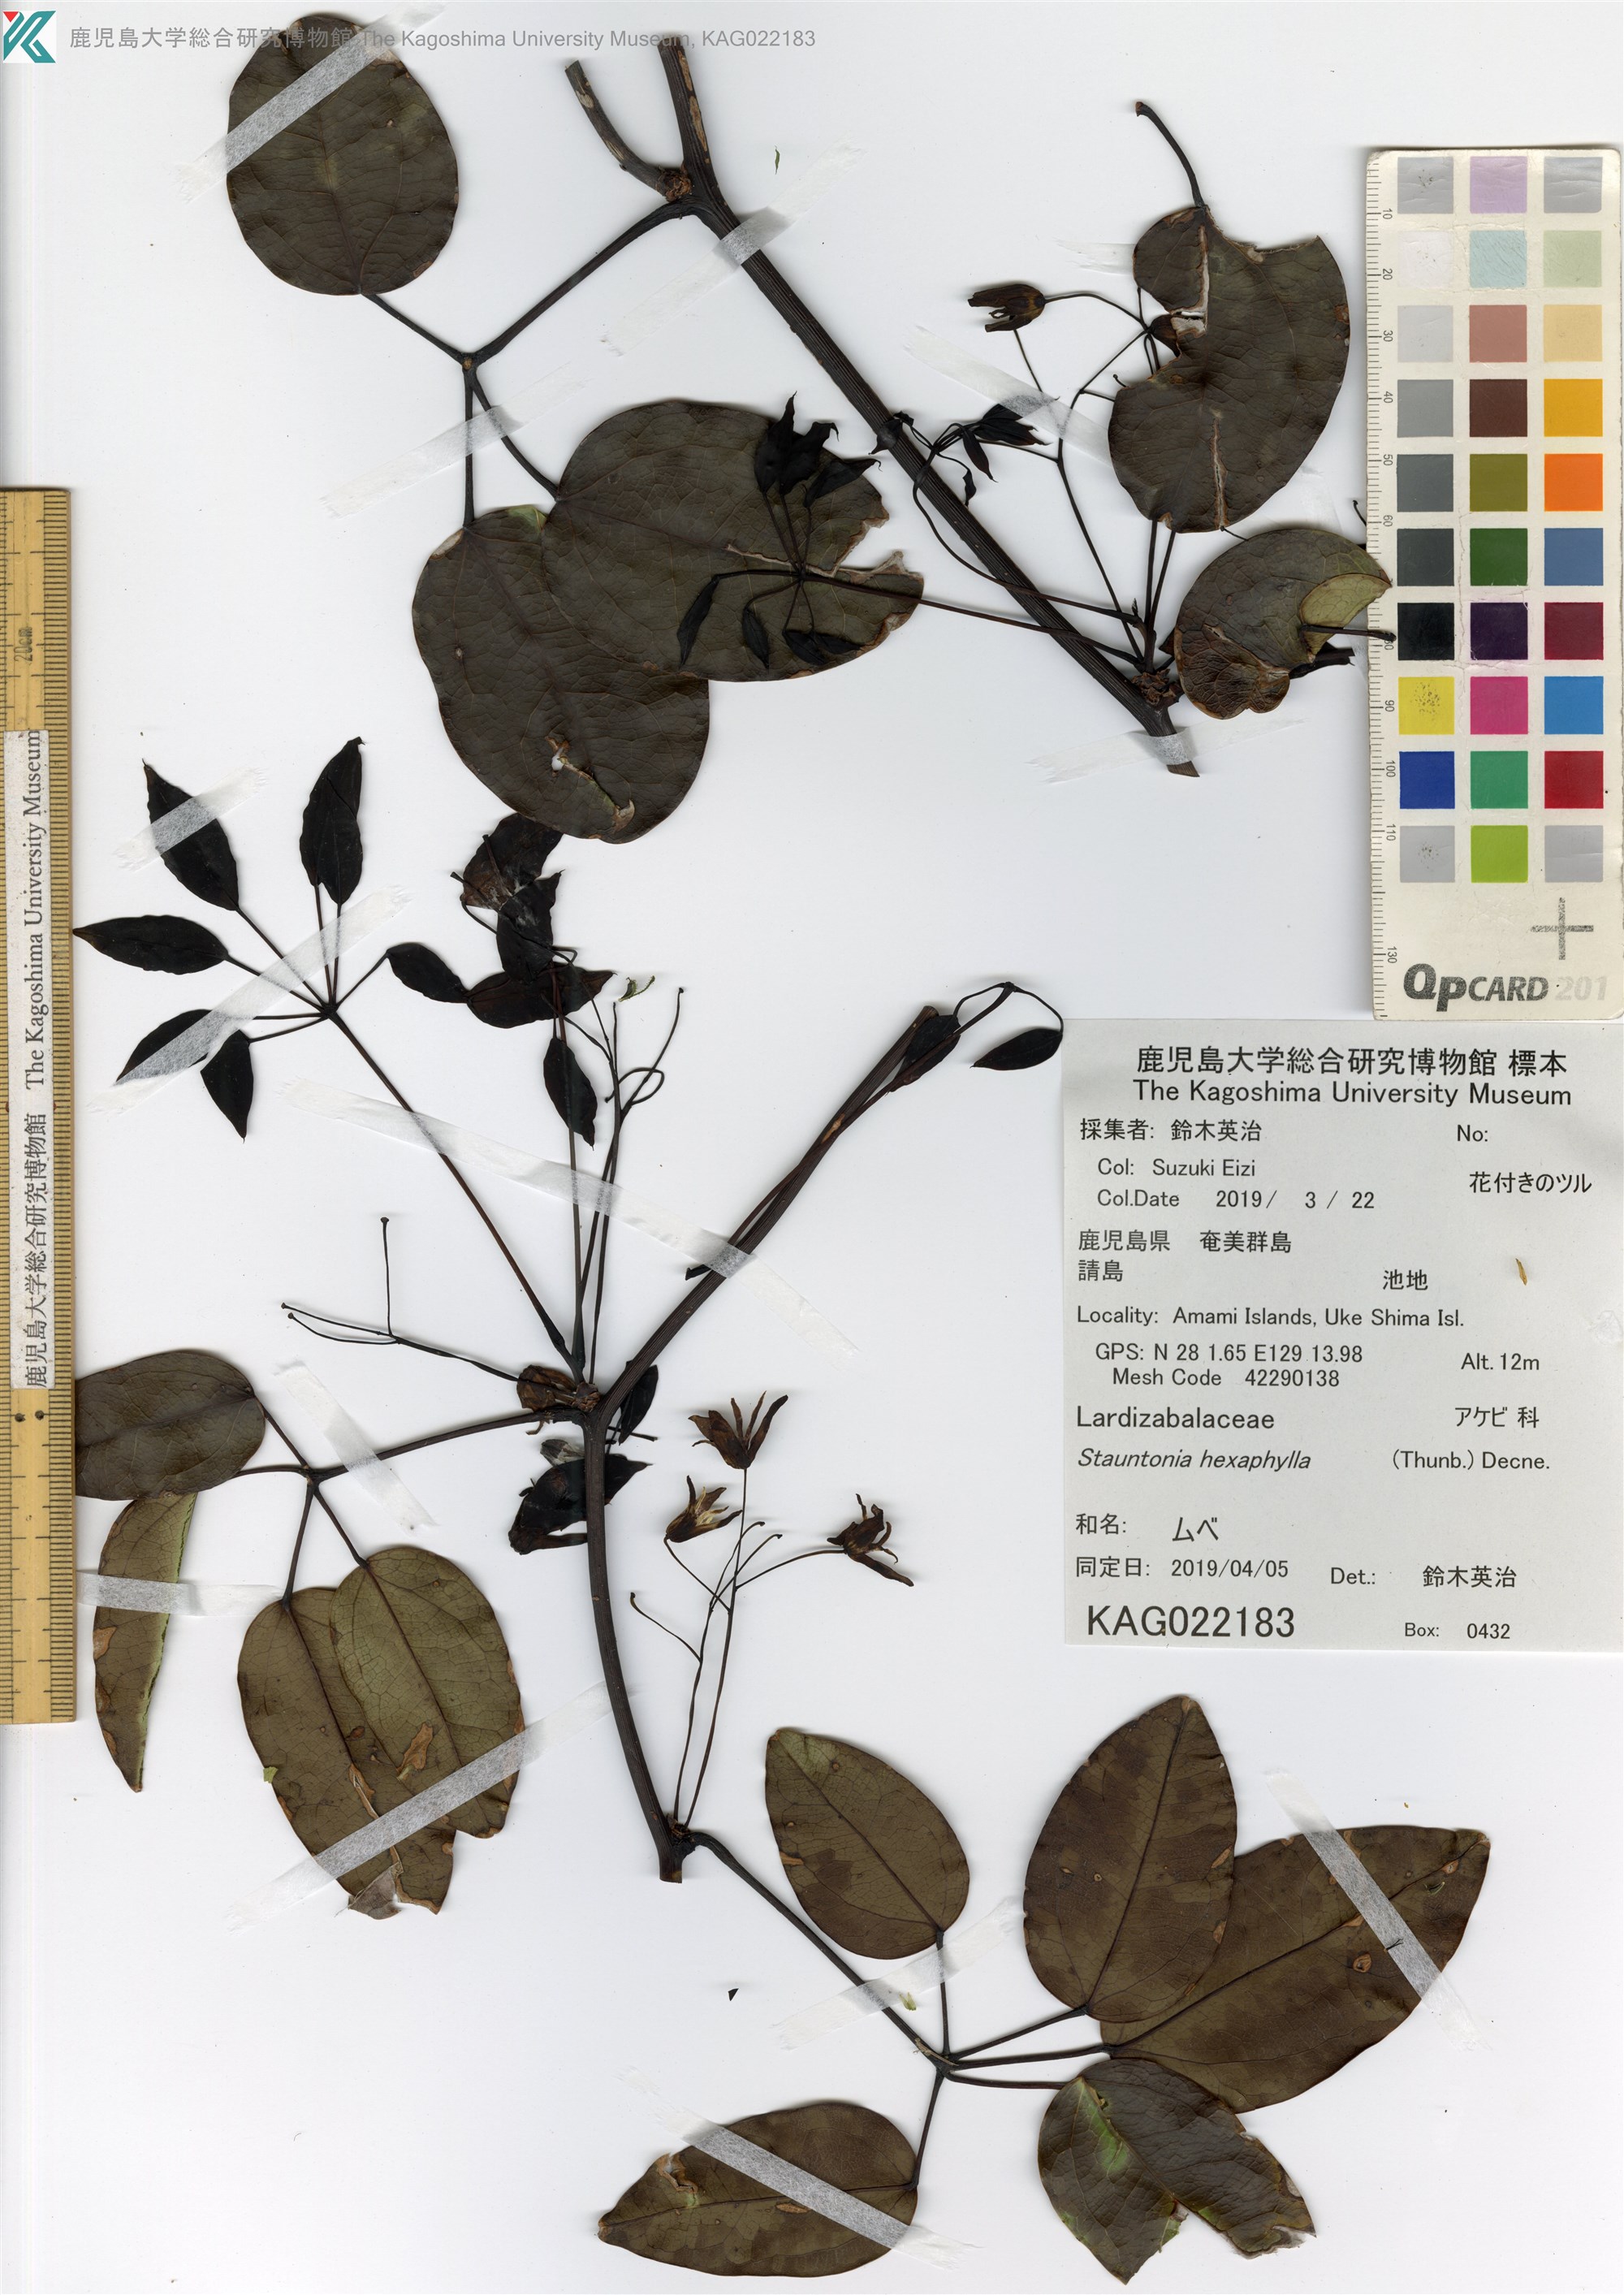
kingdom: Plantae
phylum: Tracheophyta
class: Magnoliopsida
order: Ranunculales
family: Lardizabalaceae
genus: Stauntonia
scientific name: Stauntonia hexaphylla
